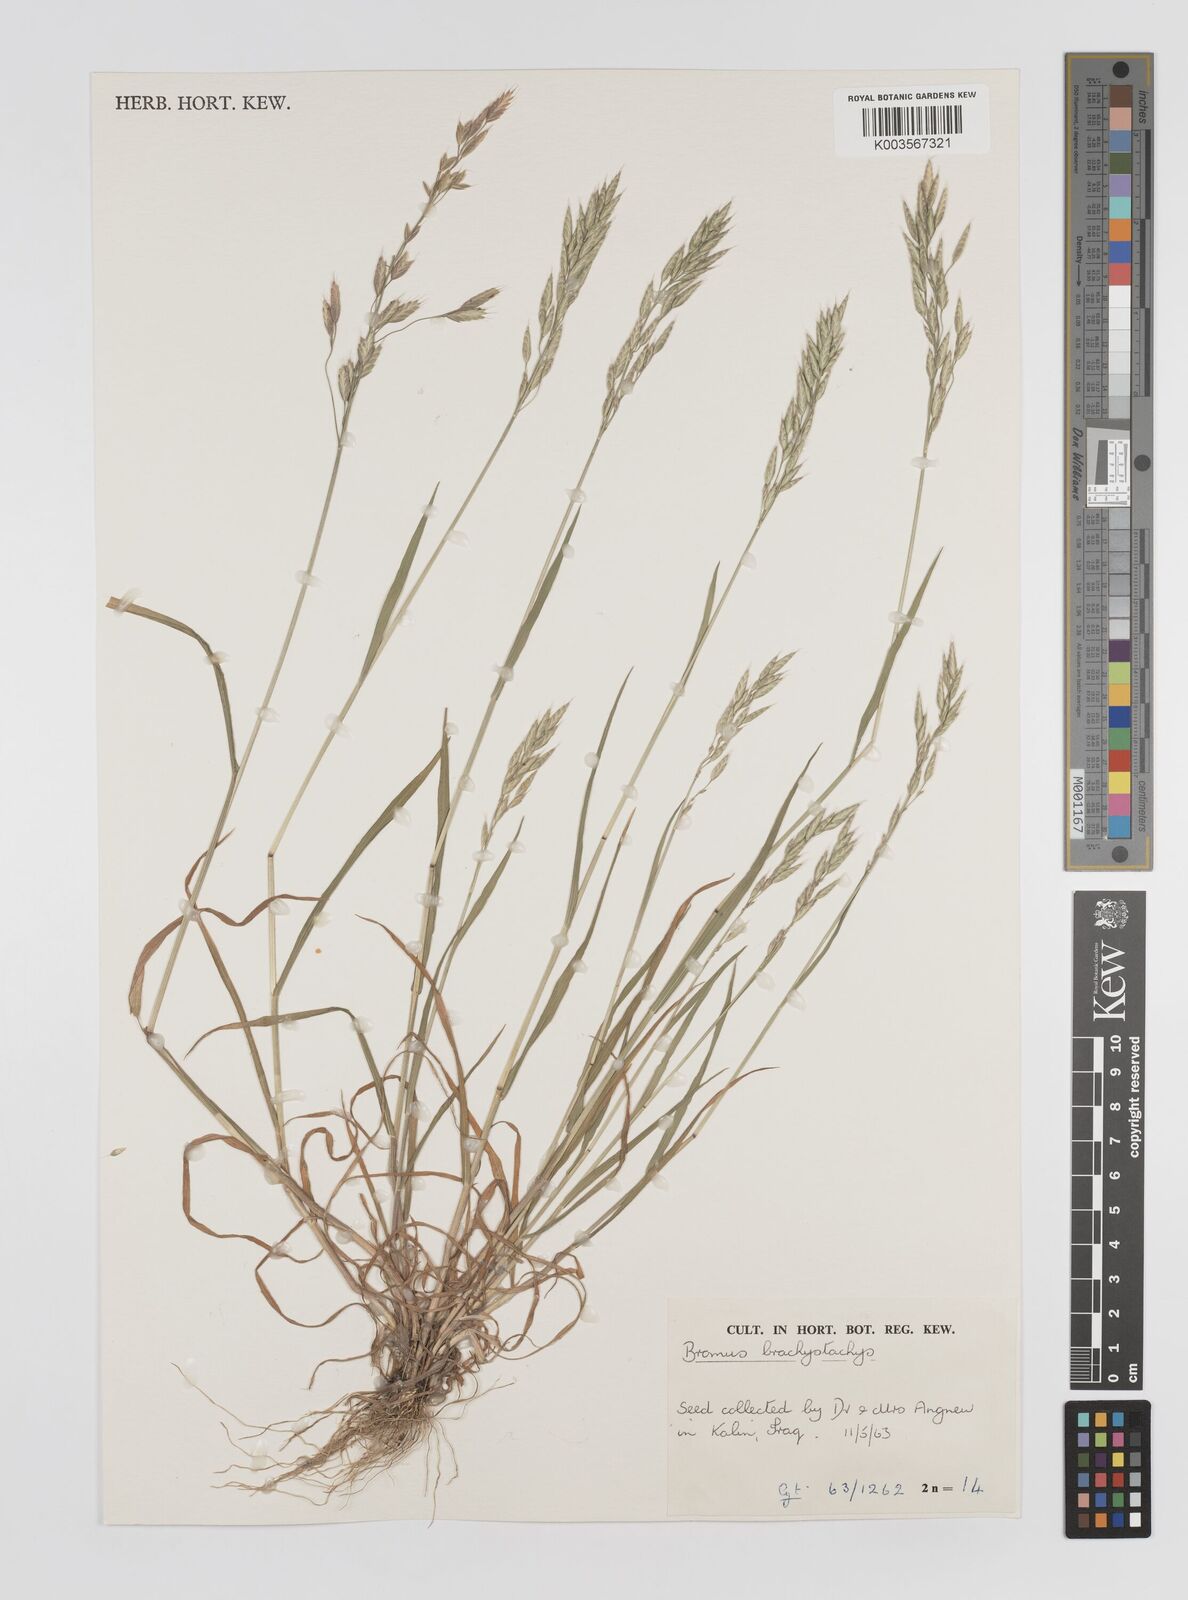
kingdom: Plantae
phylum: Tracheophyta
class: Liliopsida
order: Poales
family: Poaceae
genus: Bromus
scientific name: Bromus pseudobrachystachys
